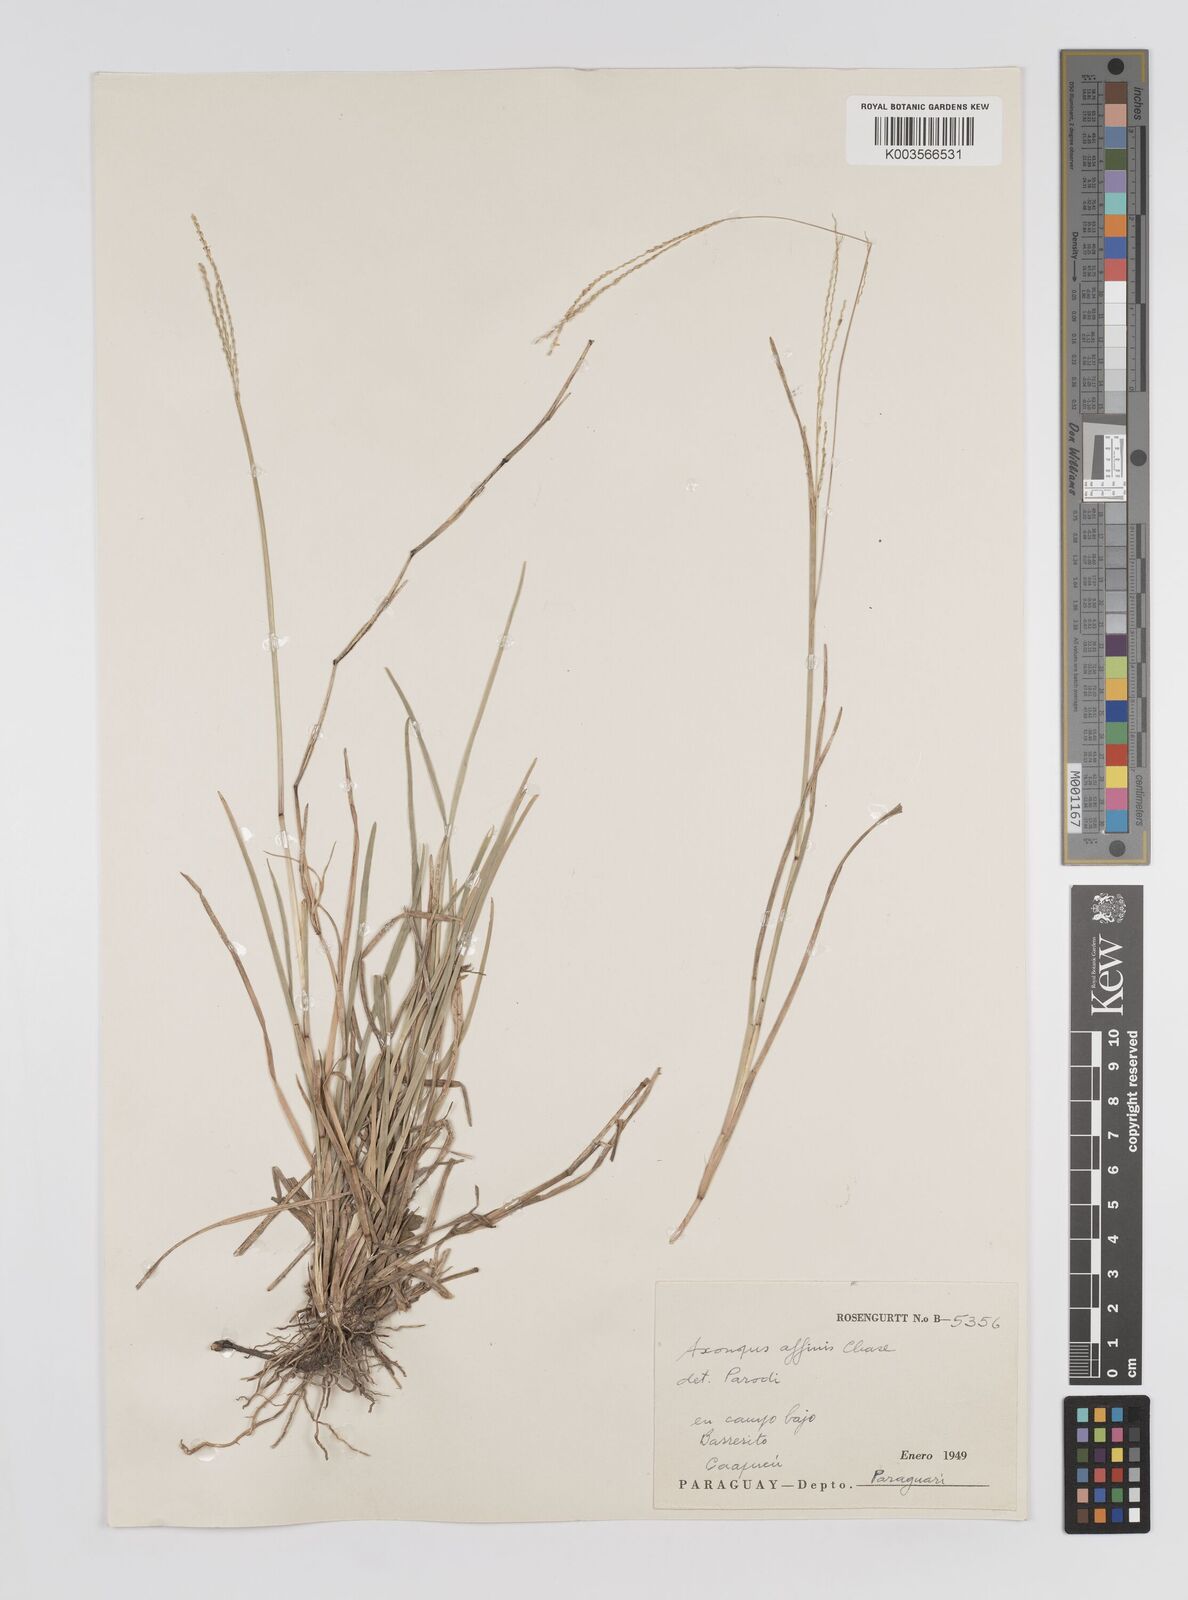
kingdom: Plantae
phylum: Tracheophyta
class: Liliopsida
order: Poales
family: Poaceae
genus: Axonopus
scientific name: Axonopus fissifolius
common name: Common carpetgrass
